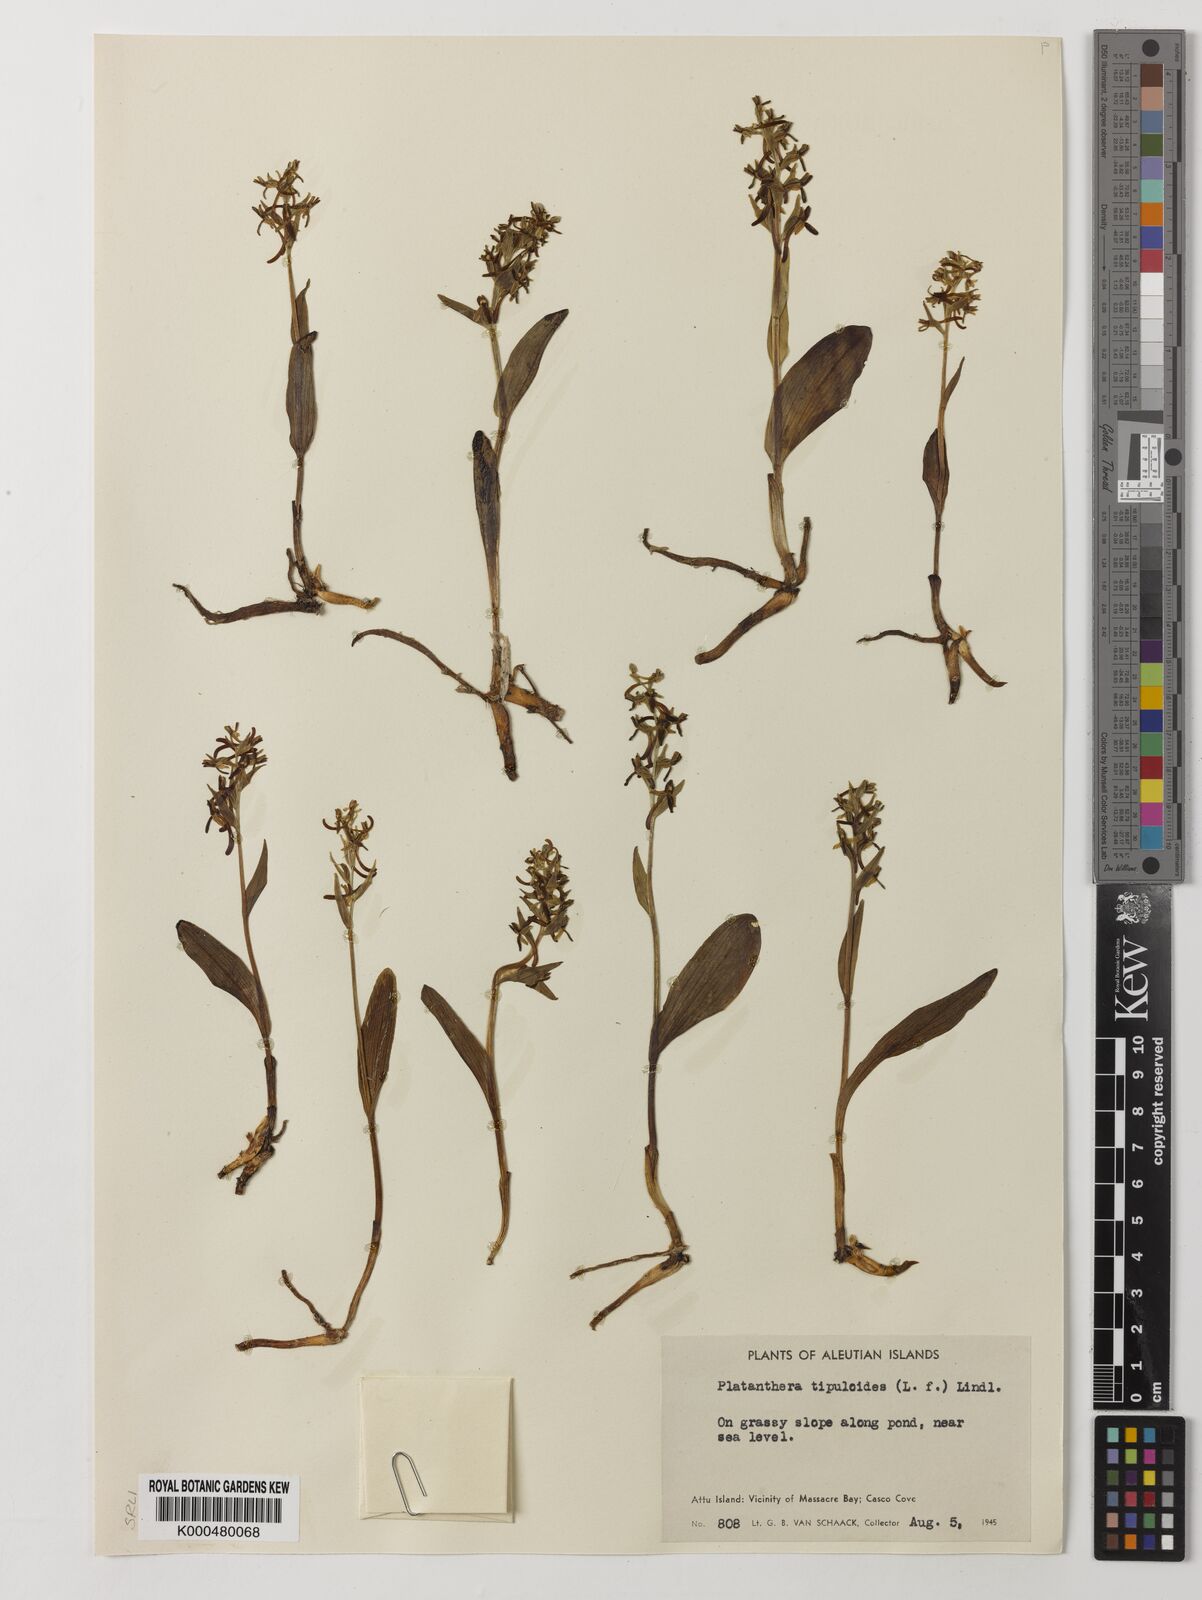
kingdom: Plantae
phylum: Tracheophyta
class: Liliopsida
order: Asparagales
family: Orchidaceae
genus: Platanthera
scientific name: Platanthera tipuloides
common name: Aleutian bog orchid
